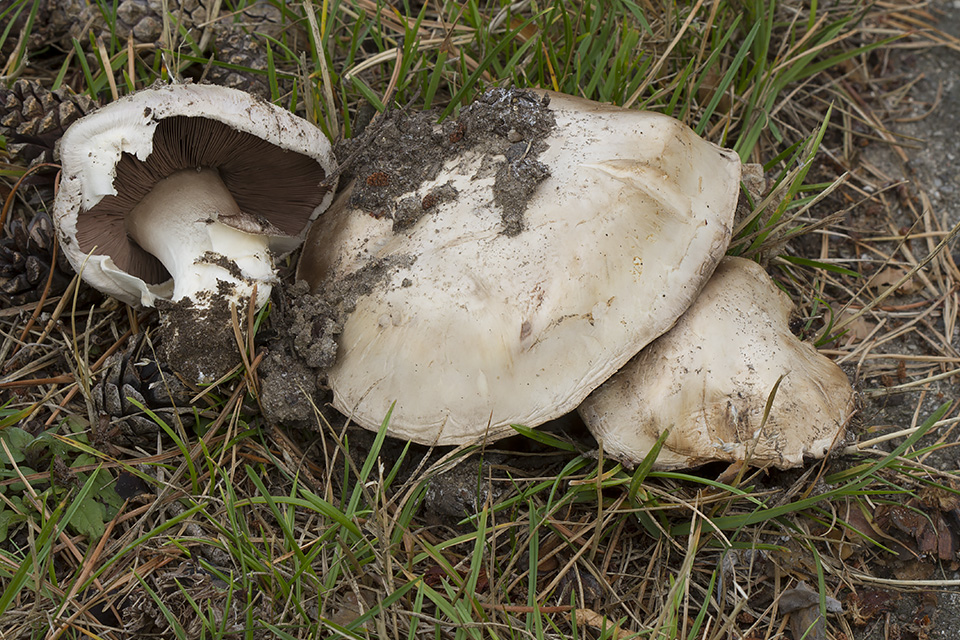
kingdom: Fungi
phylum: Basidiomycota
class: Agaricomycetes
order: Agaricales
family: Agaricaceae
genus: Agaricus
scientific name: Agaricus bitorquis
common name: vej-champignon
